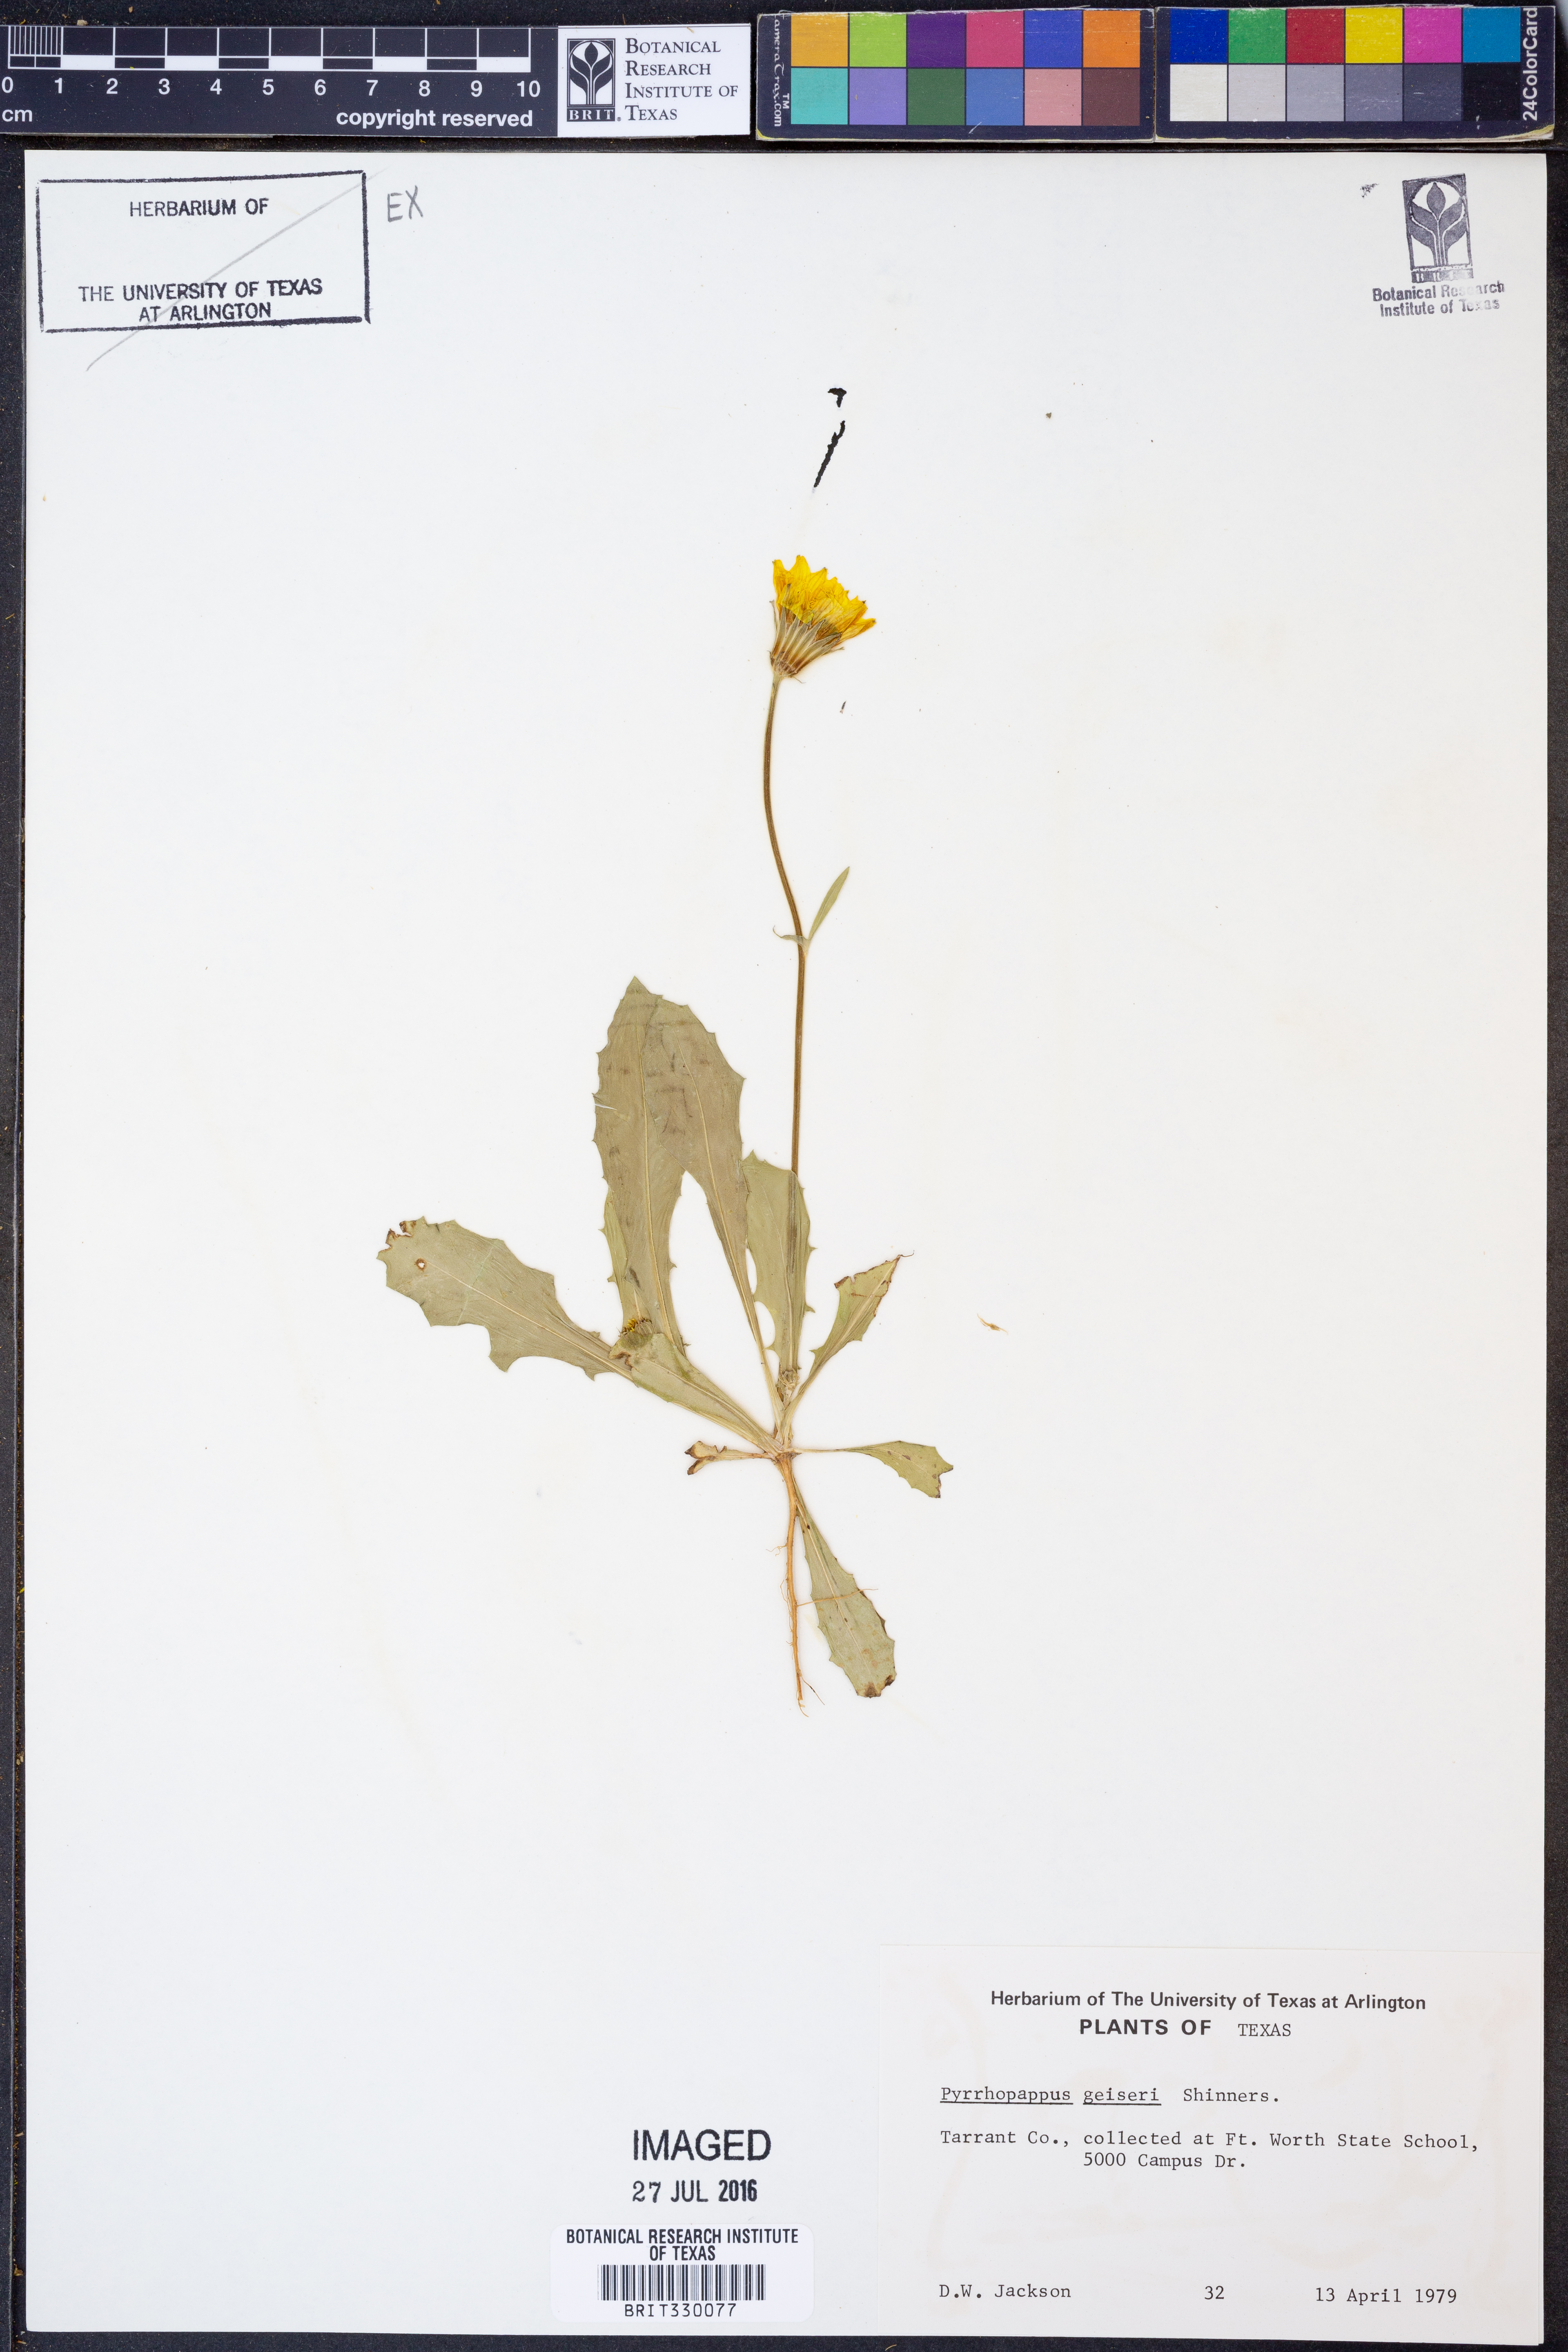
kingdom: Plantae
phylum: Tracheophyta
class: Magnoliopsida
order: Asterales
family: Asteraceae
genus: Pyrrhopappus
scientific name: Pyrrhopappus pauciflorus
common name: Texas false dandelion
